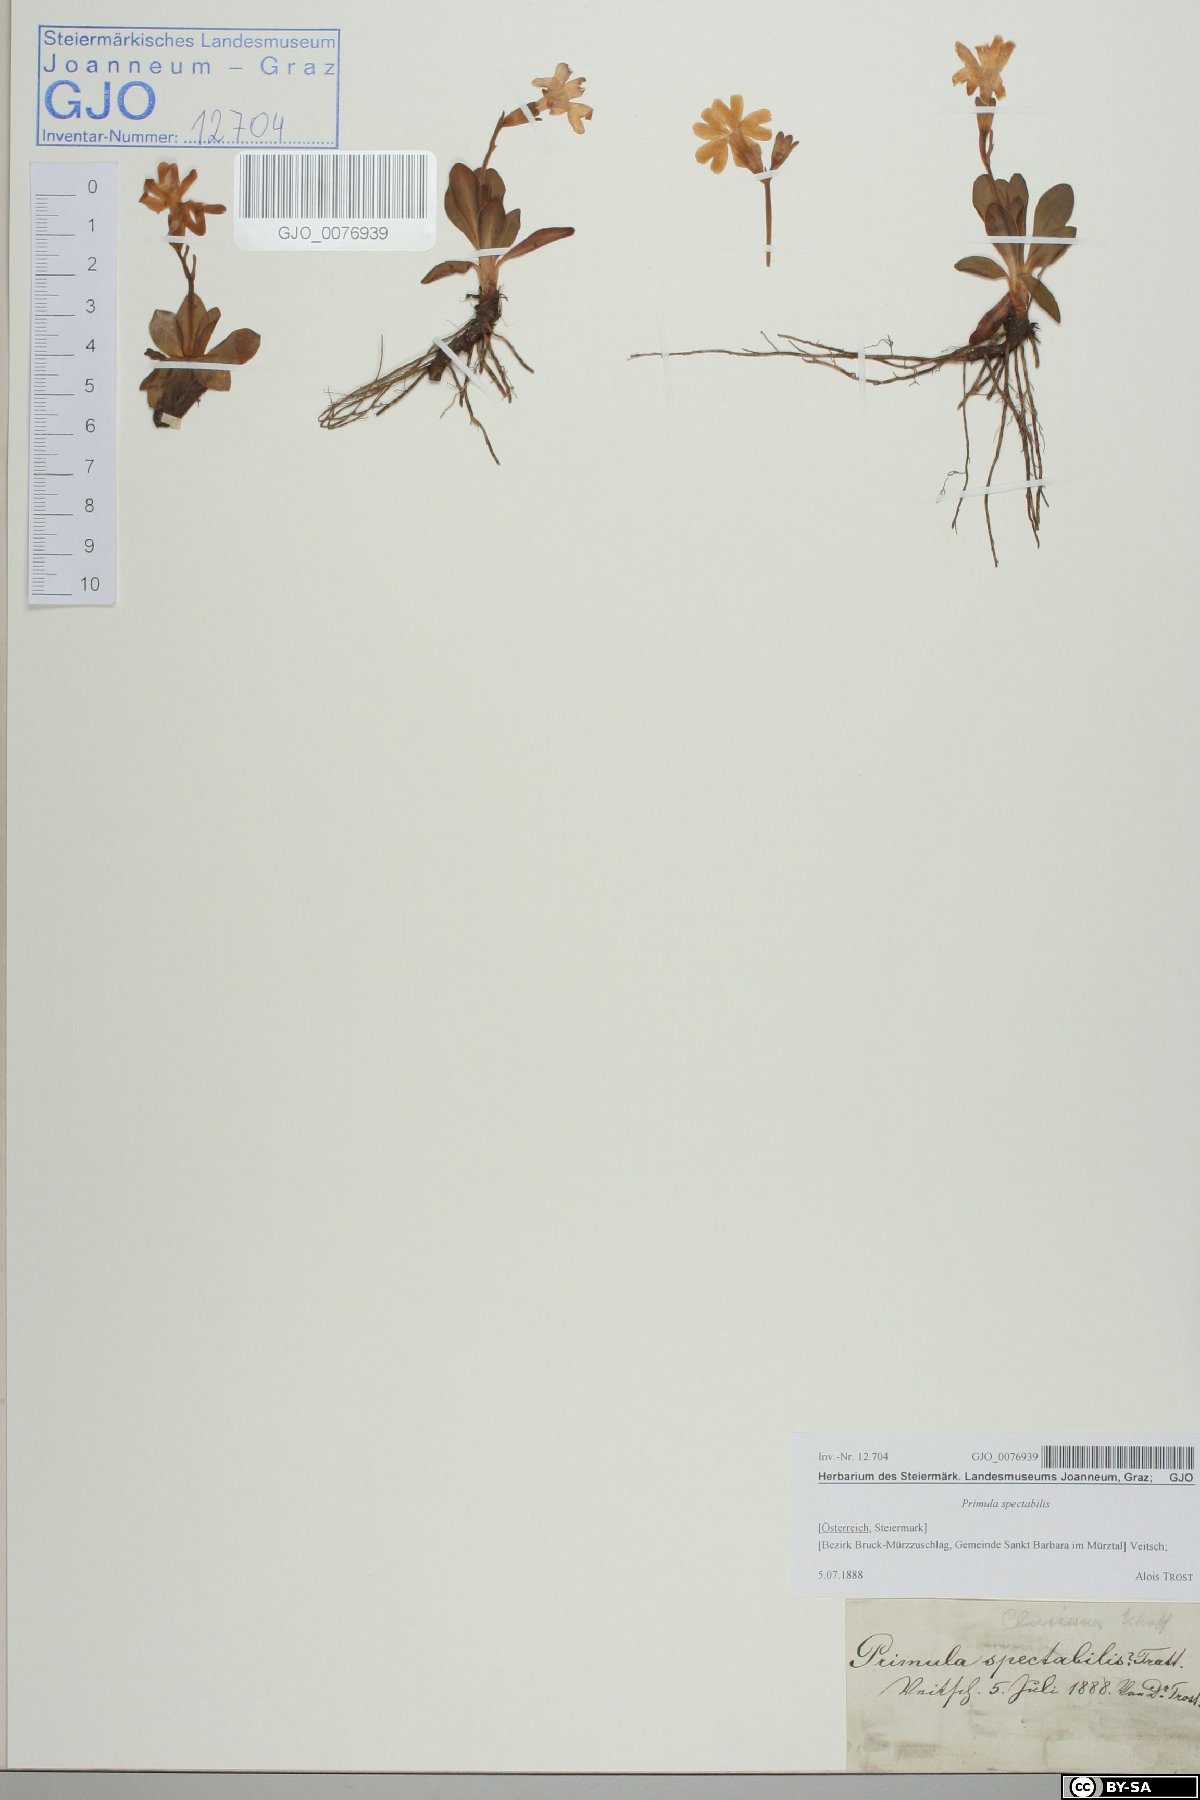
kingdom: Plantae
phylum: Tracheophyta
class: Magnoliopsida
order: Ericales
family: Primulaceae
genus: Primula
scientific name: Primula clusiana
